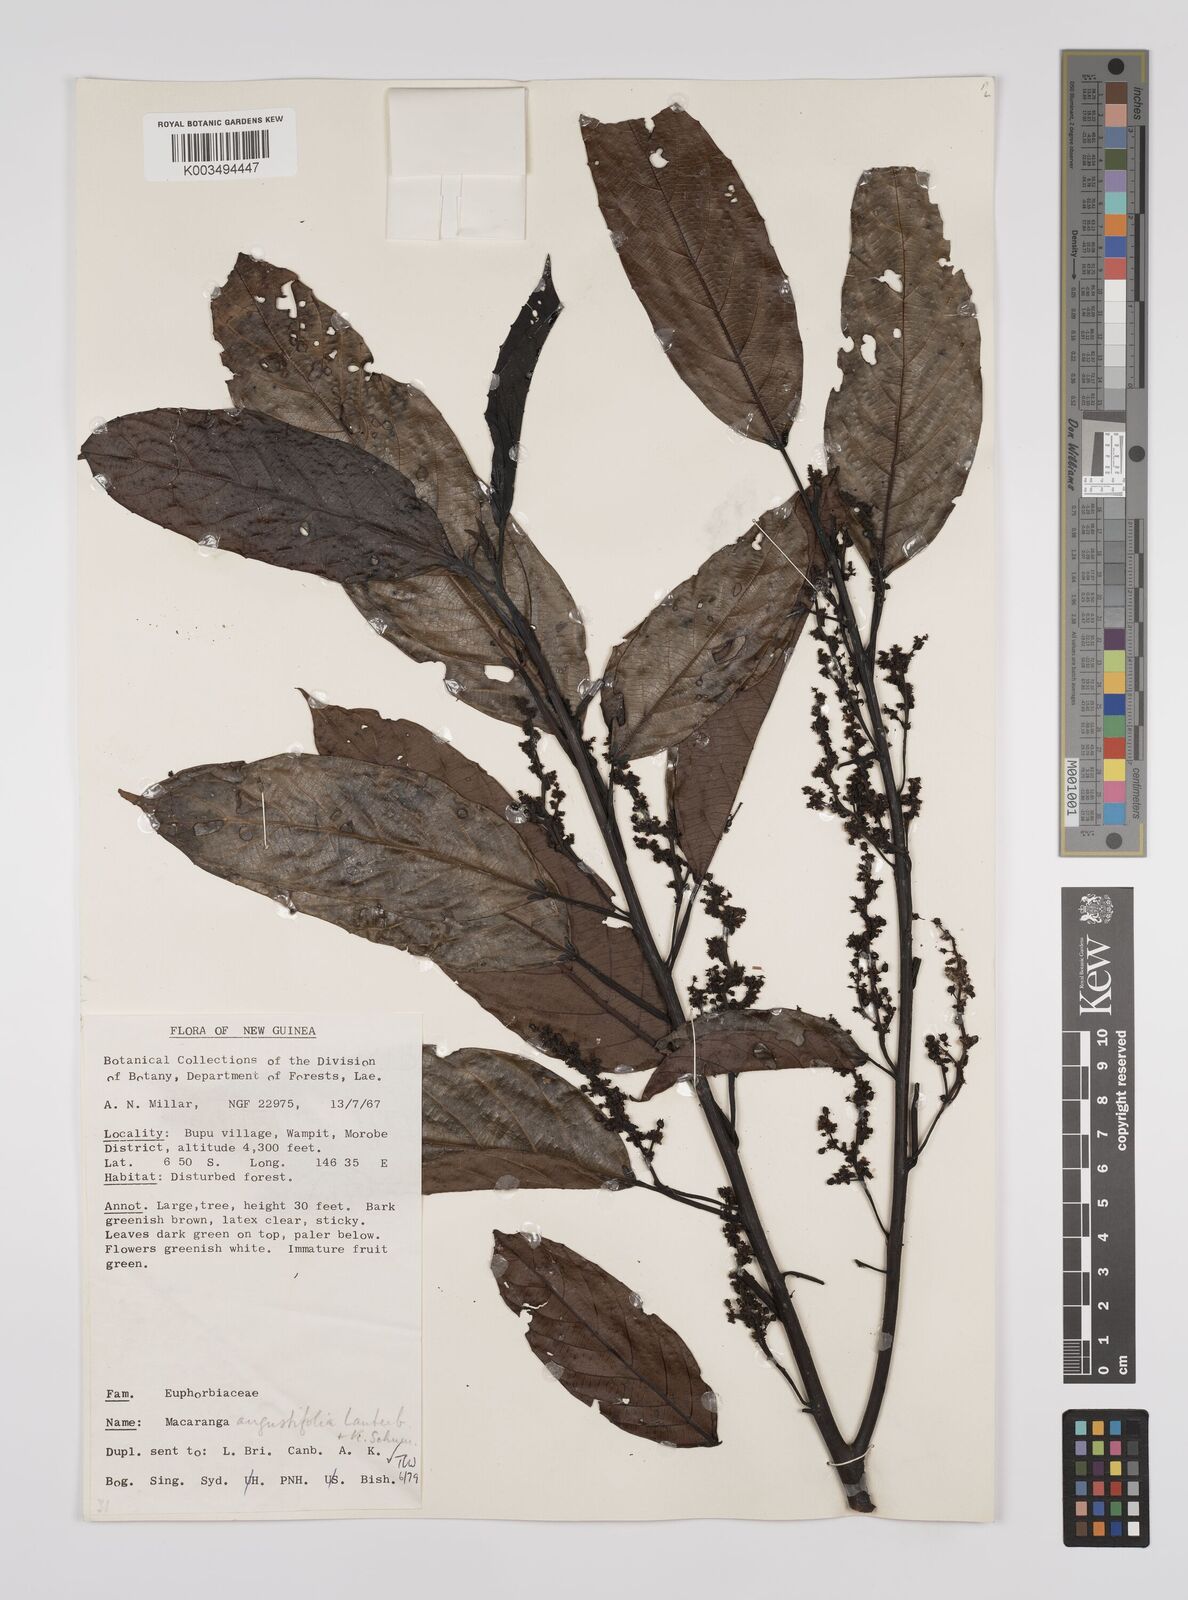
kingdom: Plantae
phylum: Tracheophyta
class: Magnoliopsida
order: Malpighiales
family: Euphorbiaceae
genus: Macaranga
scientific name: Macaranga angustifolia
